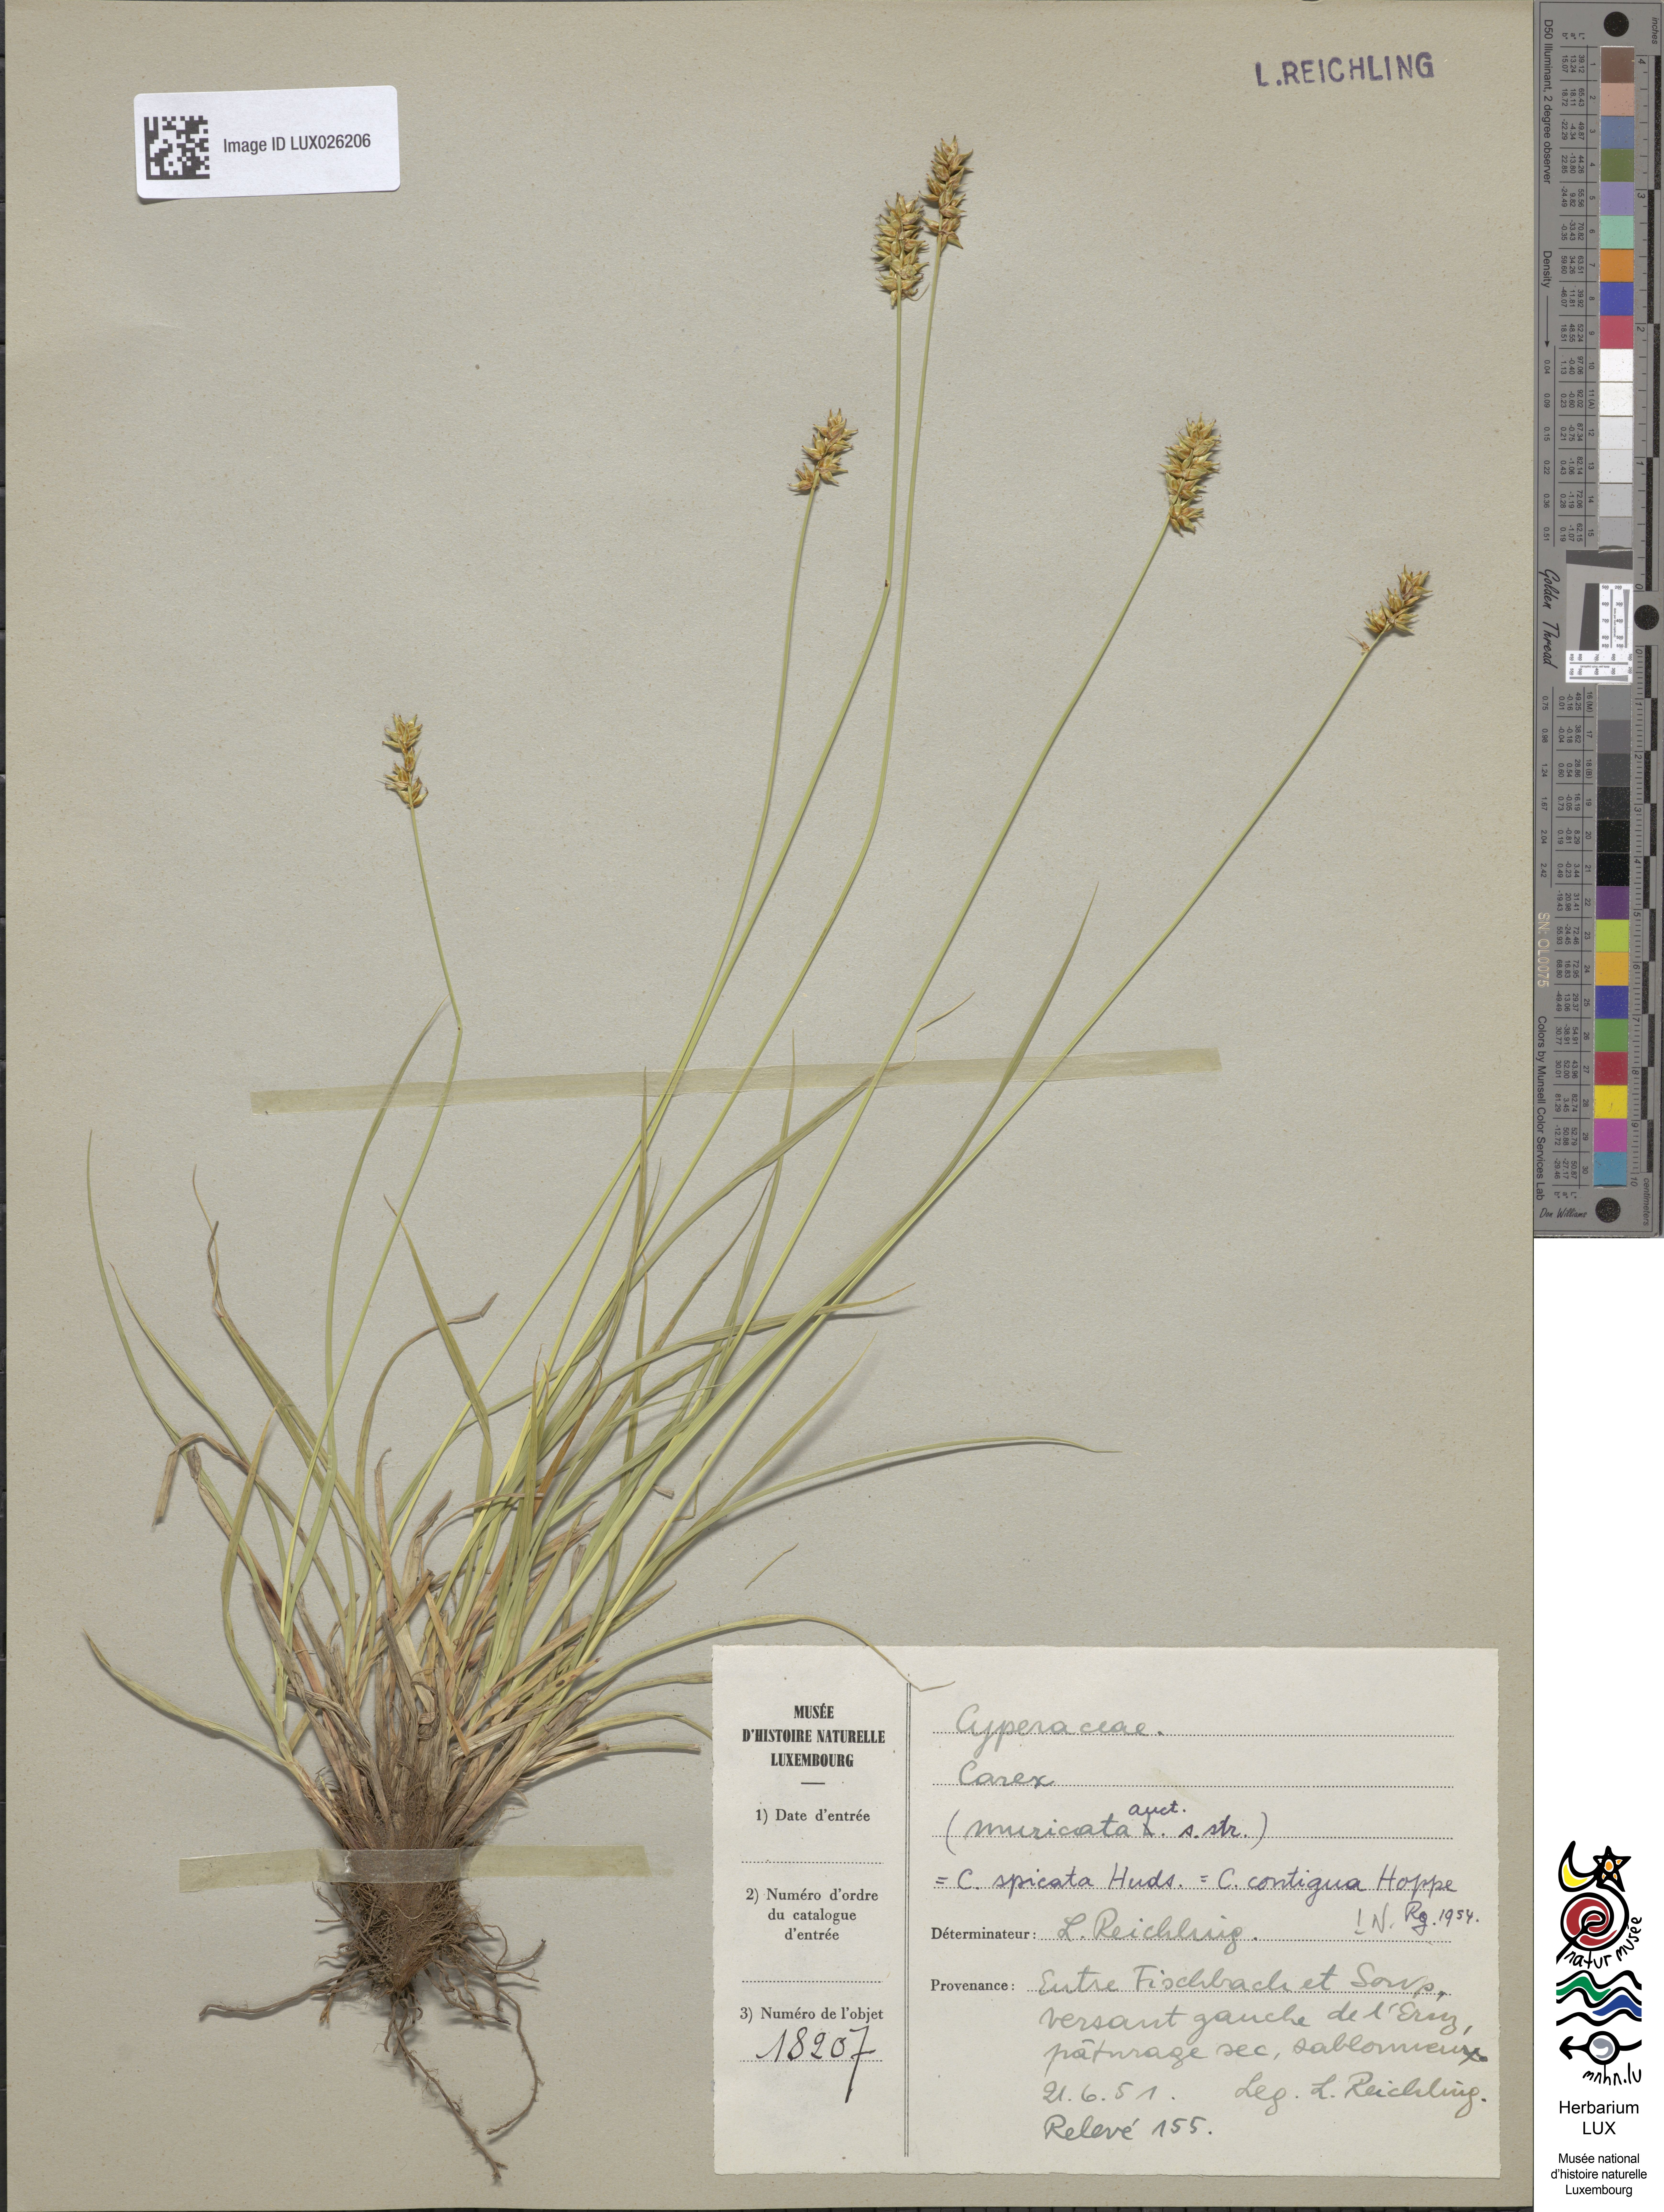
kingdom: Plantae
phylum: Tracheophyta
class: Liliopsida
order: Poales
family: Cyperaceae
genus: Carex
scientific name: Carex spicata
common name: Spiked sedge
